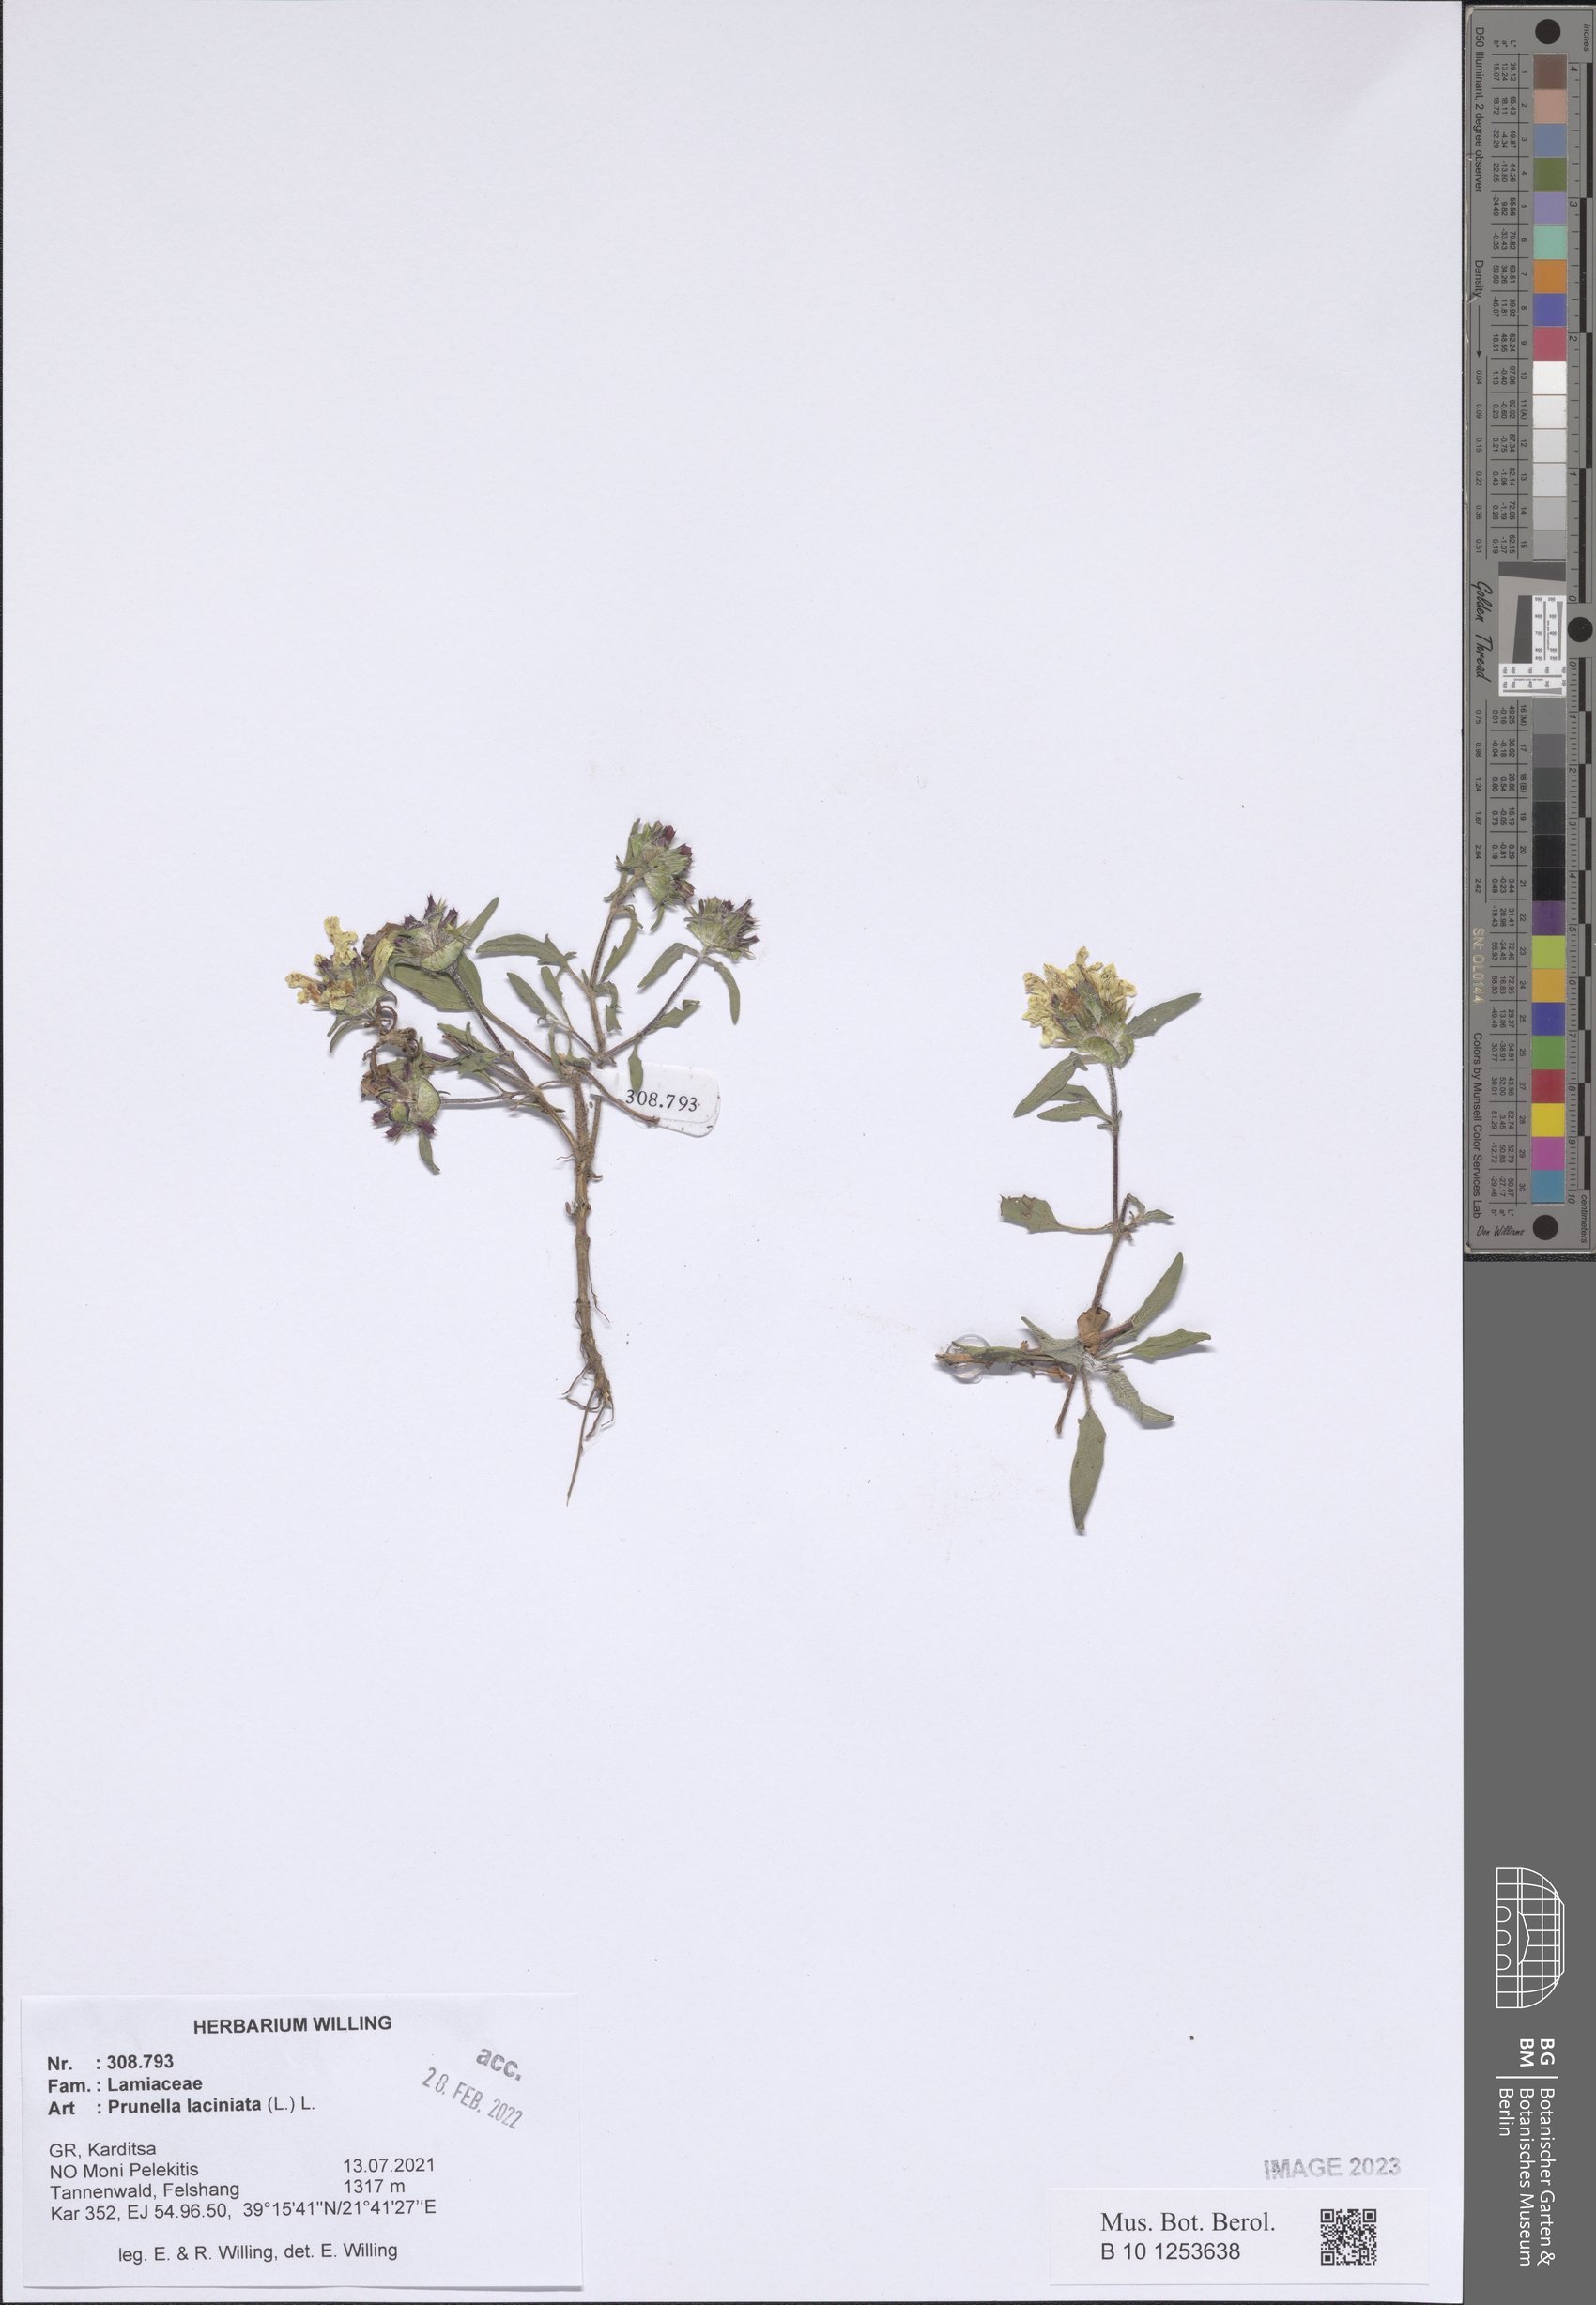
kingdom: Plantae
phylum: Tracheophyta
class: Magnoliopsida
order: Lamiales
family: Lamiaceae
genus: Prunella
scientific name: Prunella laciniata
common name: Cut-leaved selfheal
